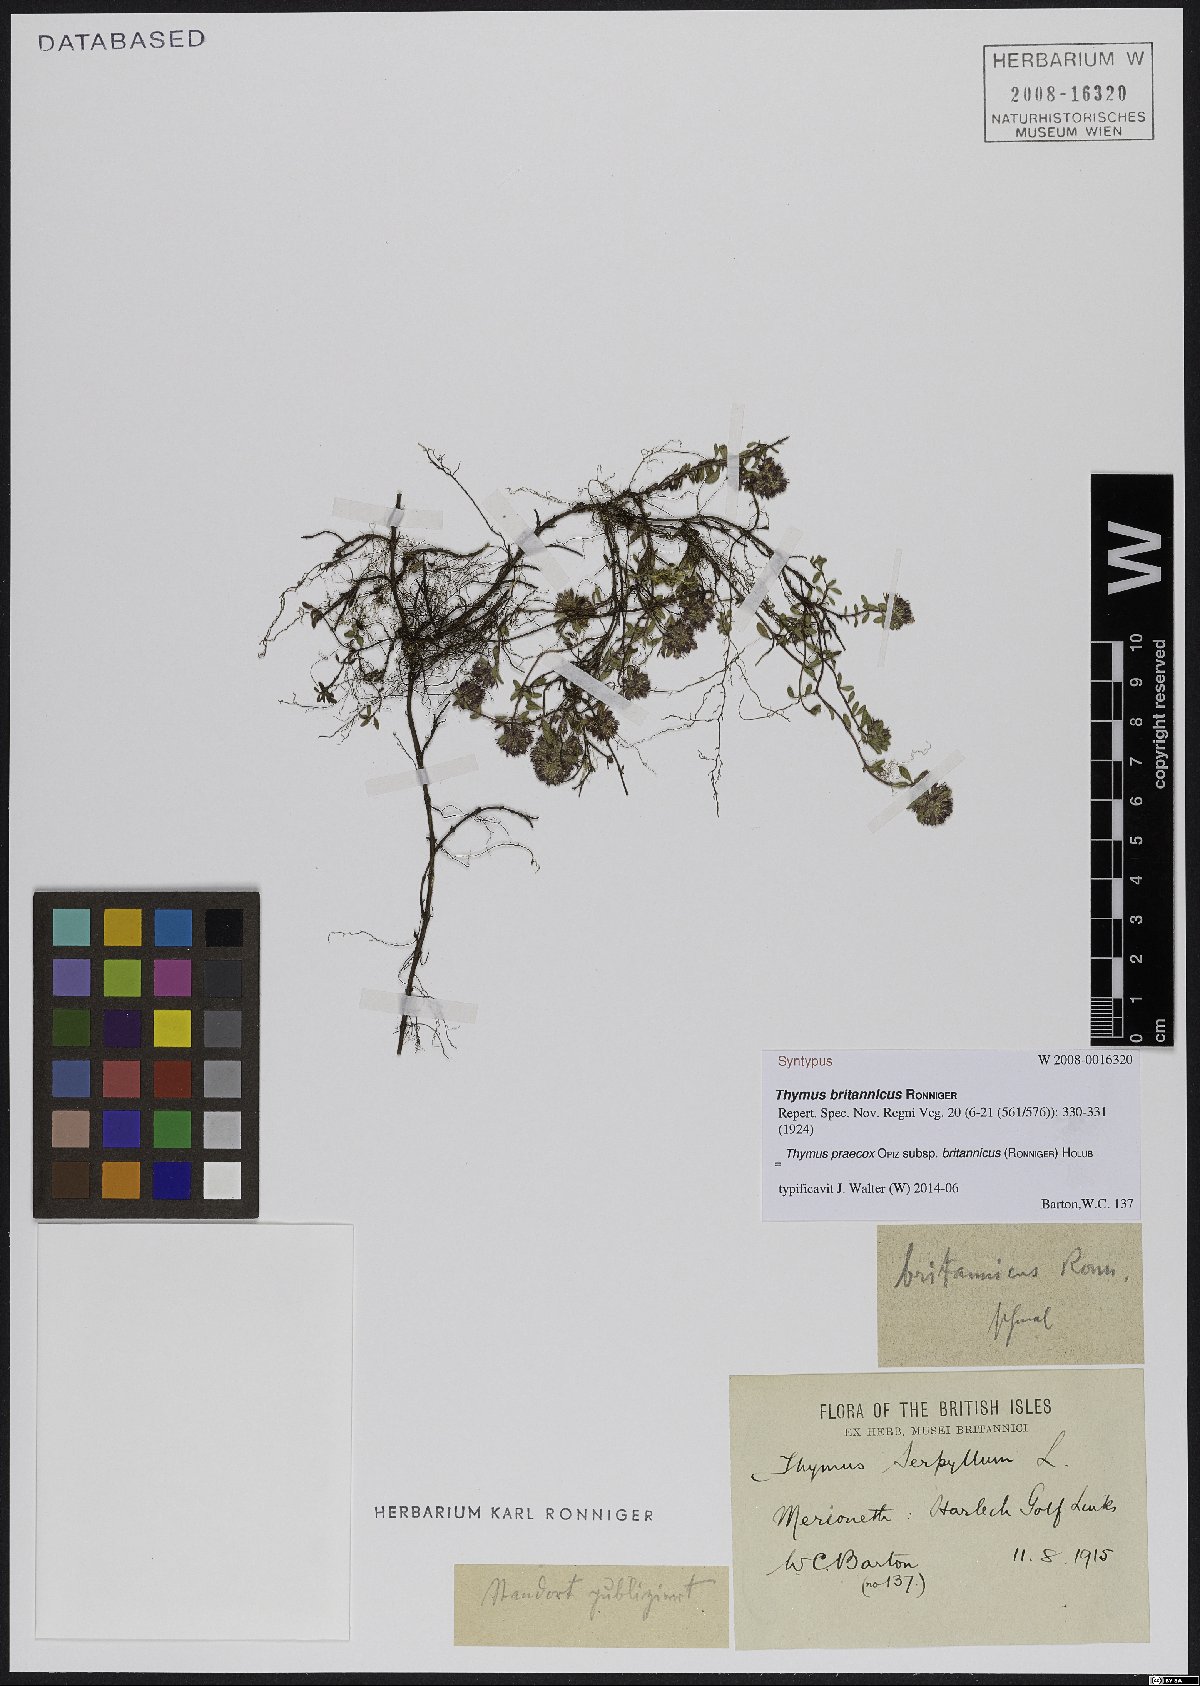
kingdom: Plantae
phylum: Tracheophyta
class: Magnoliopsida
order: Lamiales
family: Lamiaceae
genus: Thymus
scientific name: Thymus praecox
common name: Wild thyme
